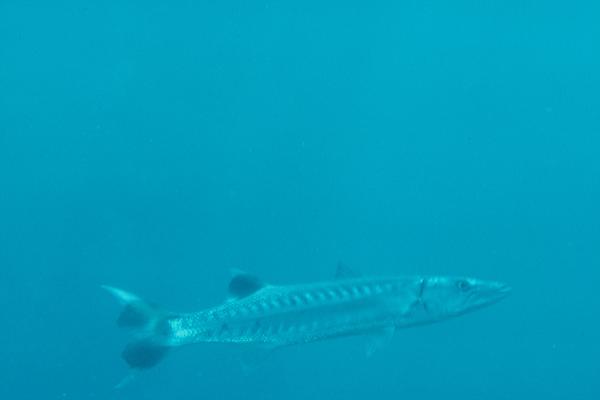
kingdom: Animalia
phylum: Chordata
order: Perciformes
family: Sphyraenidae
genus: Sphyraena
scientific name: Sphyraena barracuda
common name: Great barracuda
